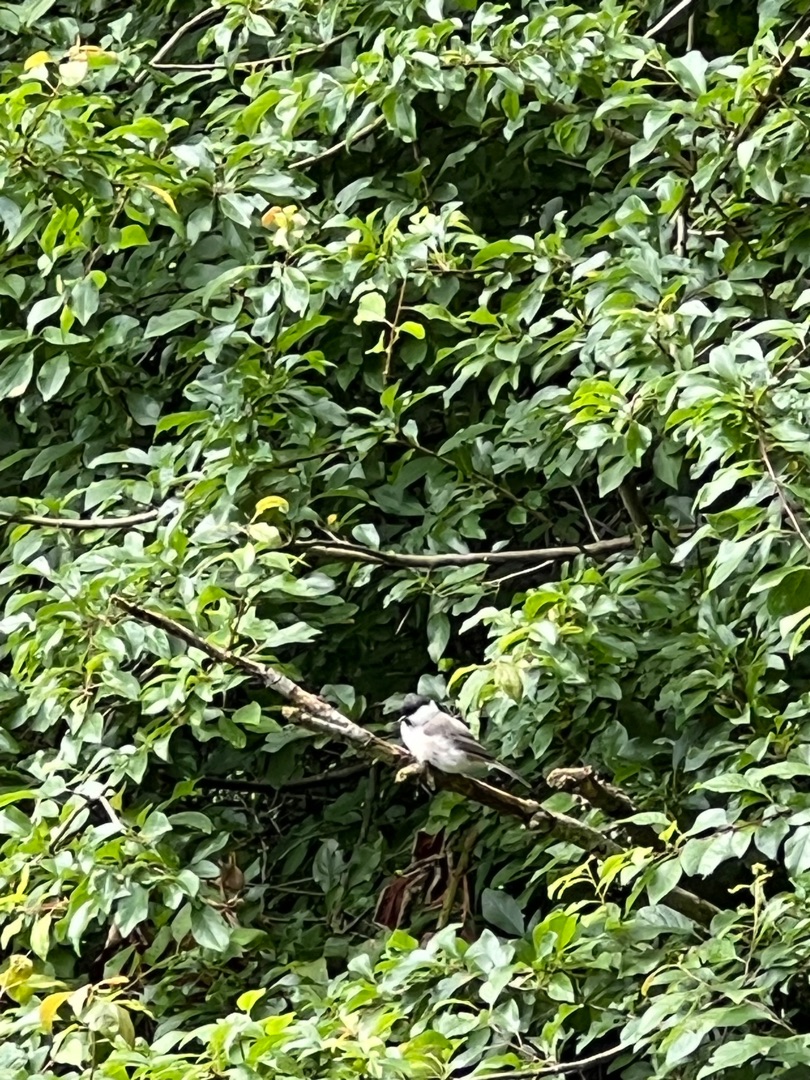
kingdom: Animalia
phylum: Chordata
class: Aves
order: Passeriformes
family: Paridae
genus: Poecile
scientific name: Poecile palustris
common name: Sumpmejse
